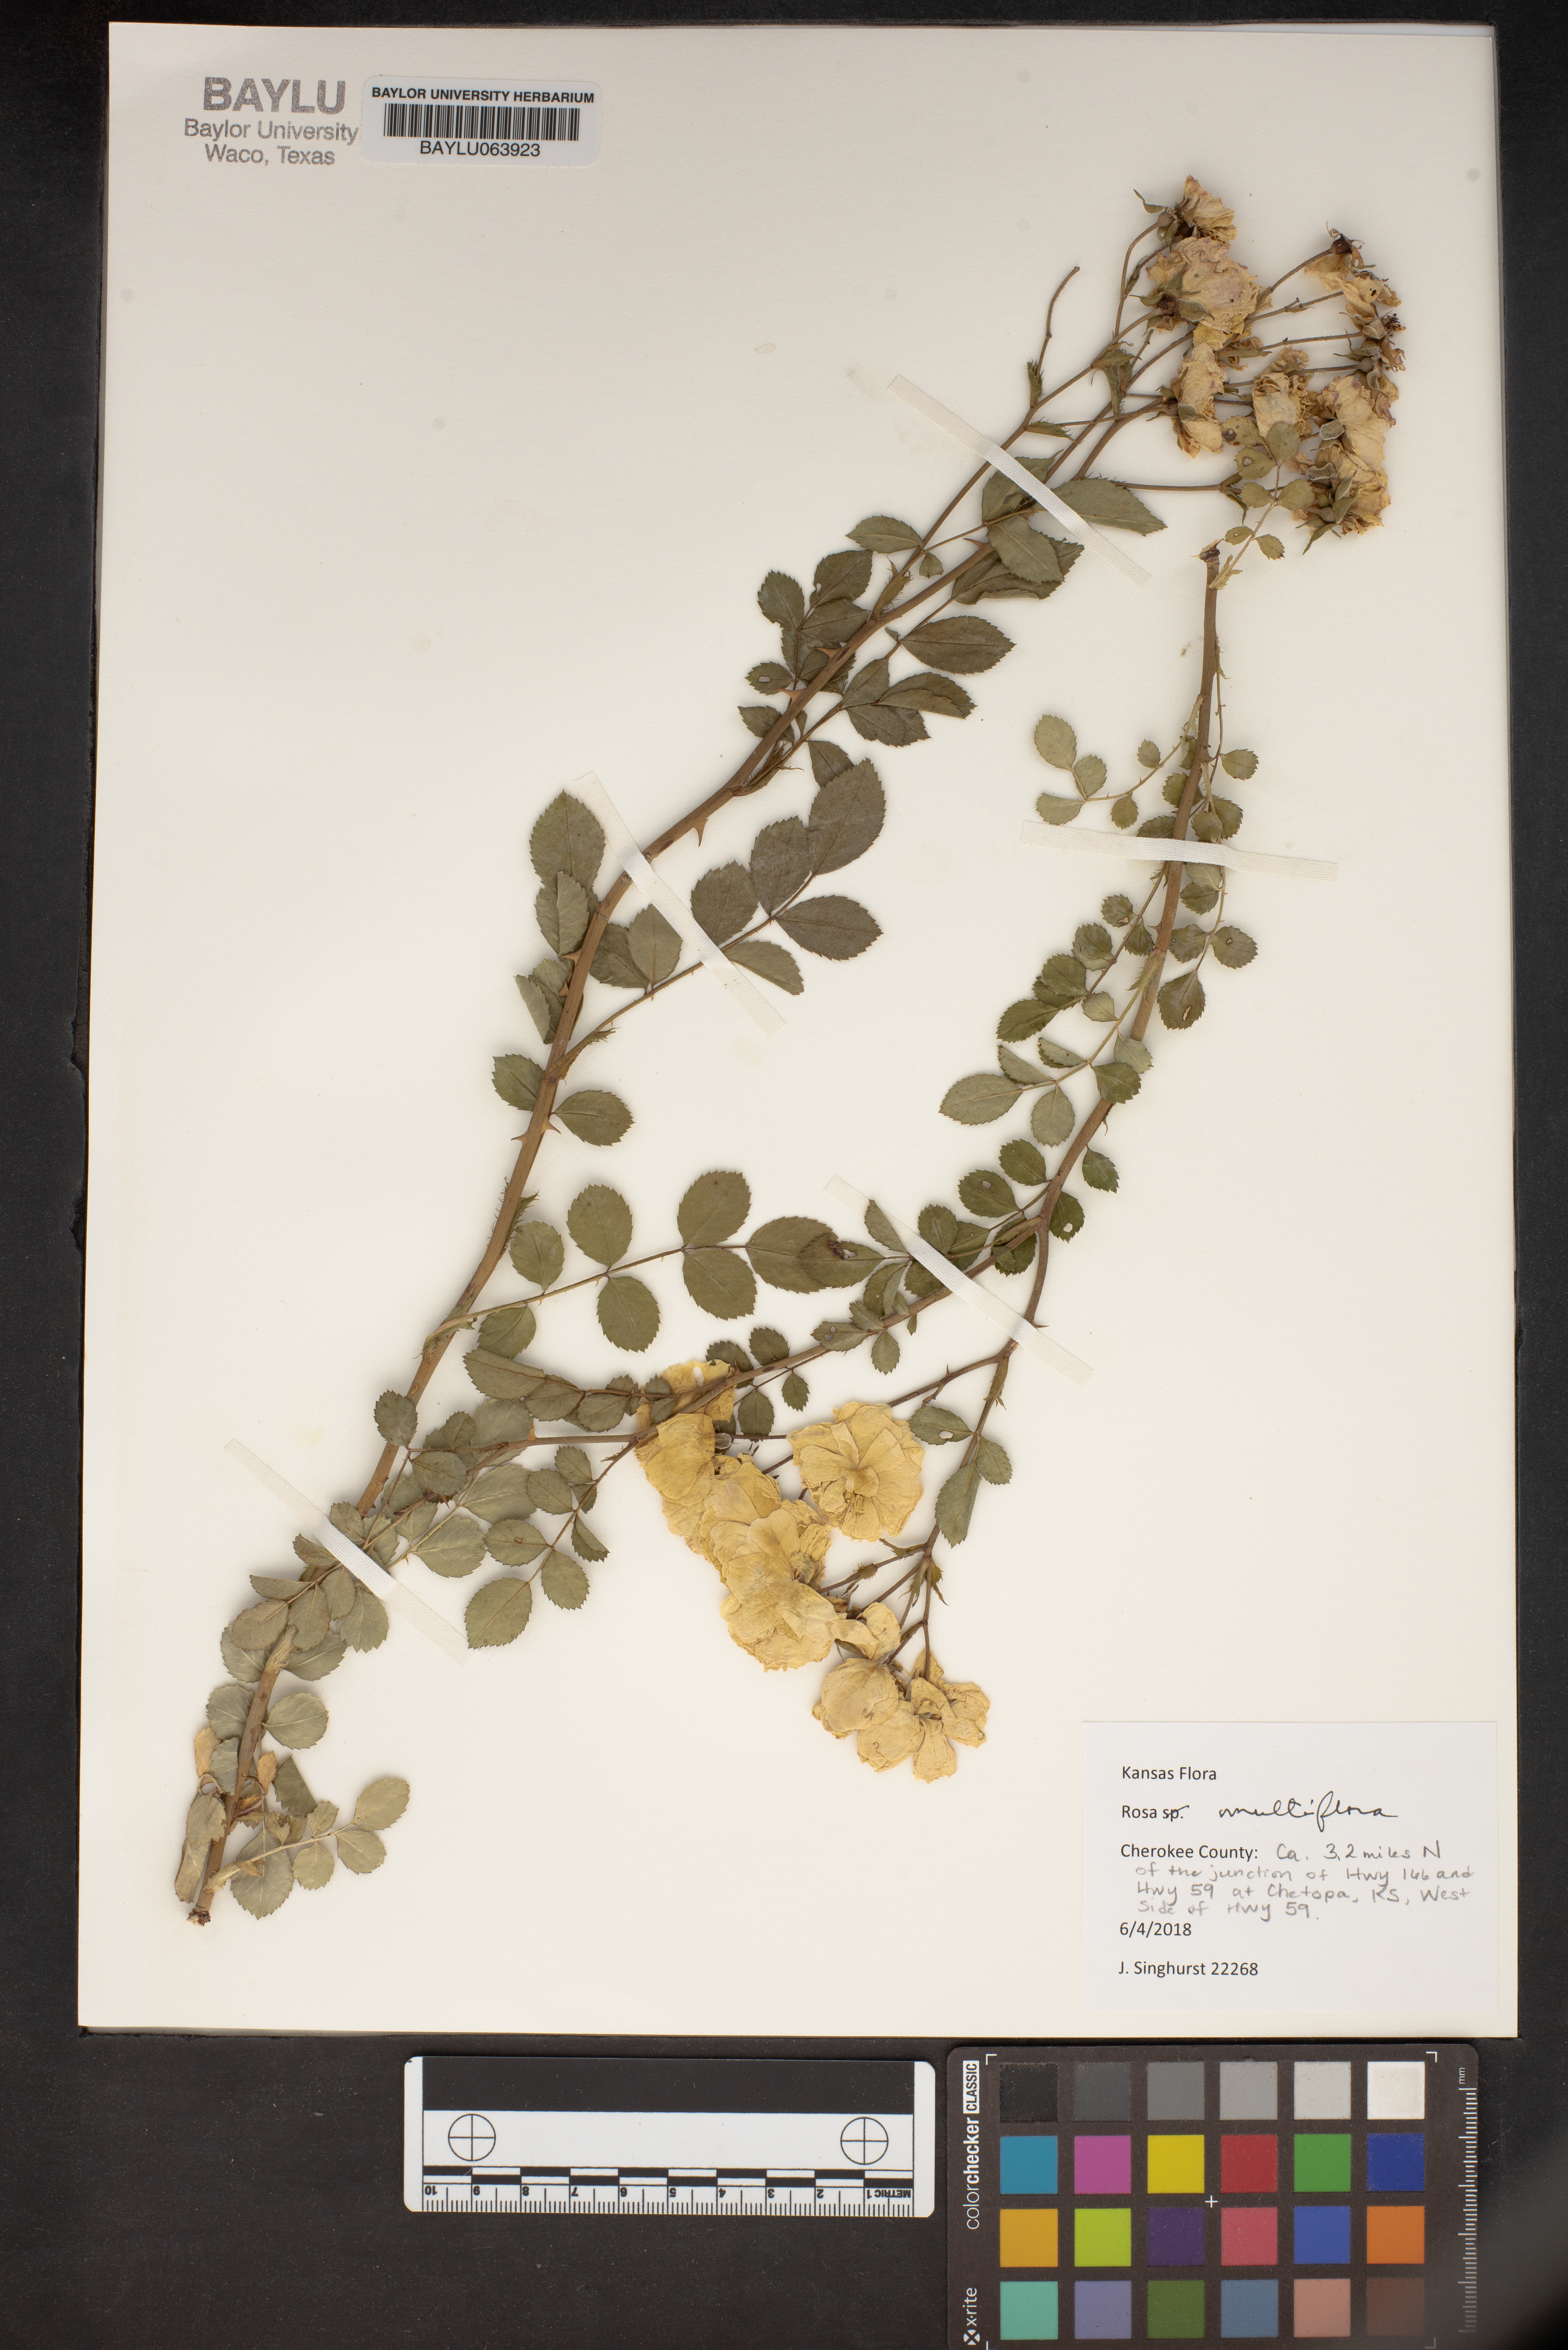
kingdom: Plantae
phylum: Tracheophyta
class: Magnoliopsida
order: Rosales
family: Rosaceae
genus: Rosa
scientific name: Rosa multiflora
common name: Multiflora rose
